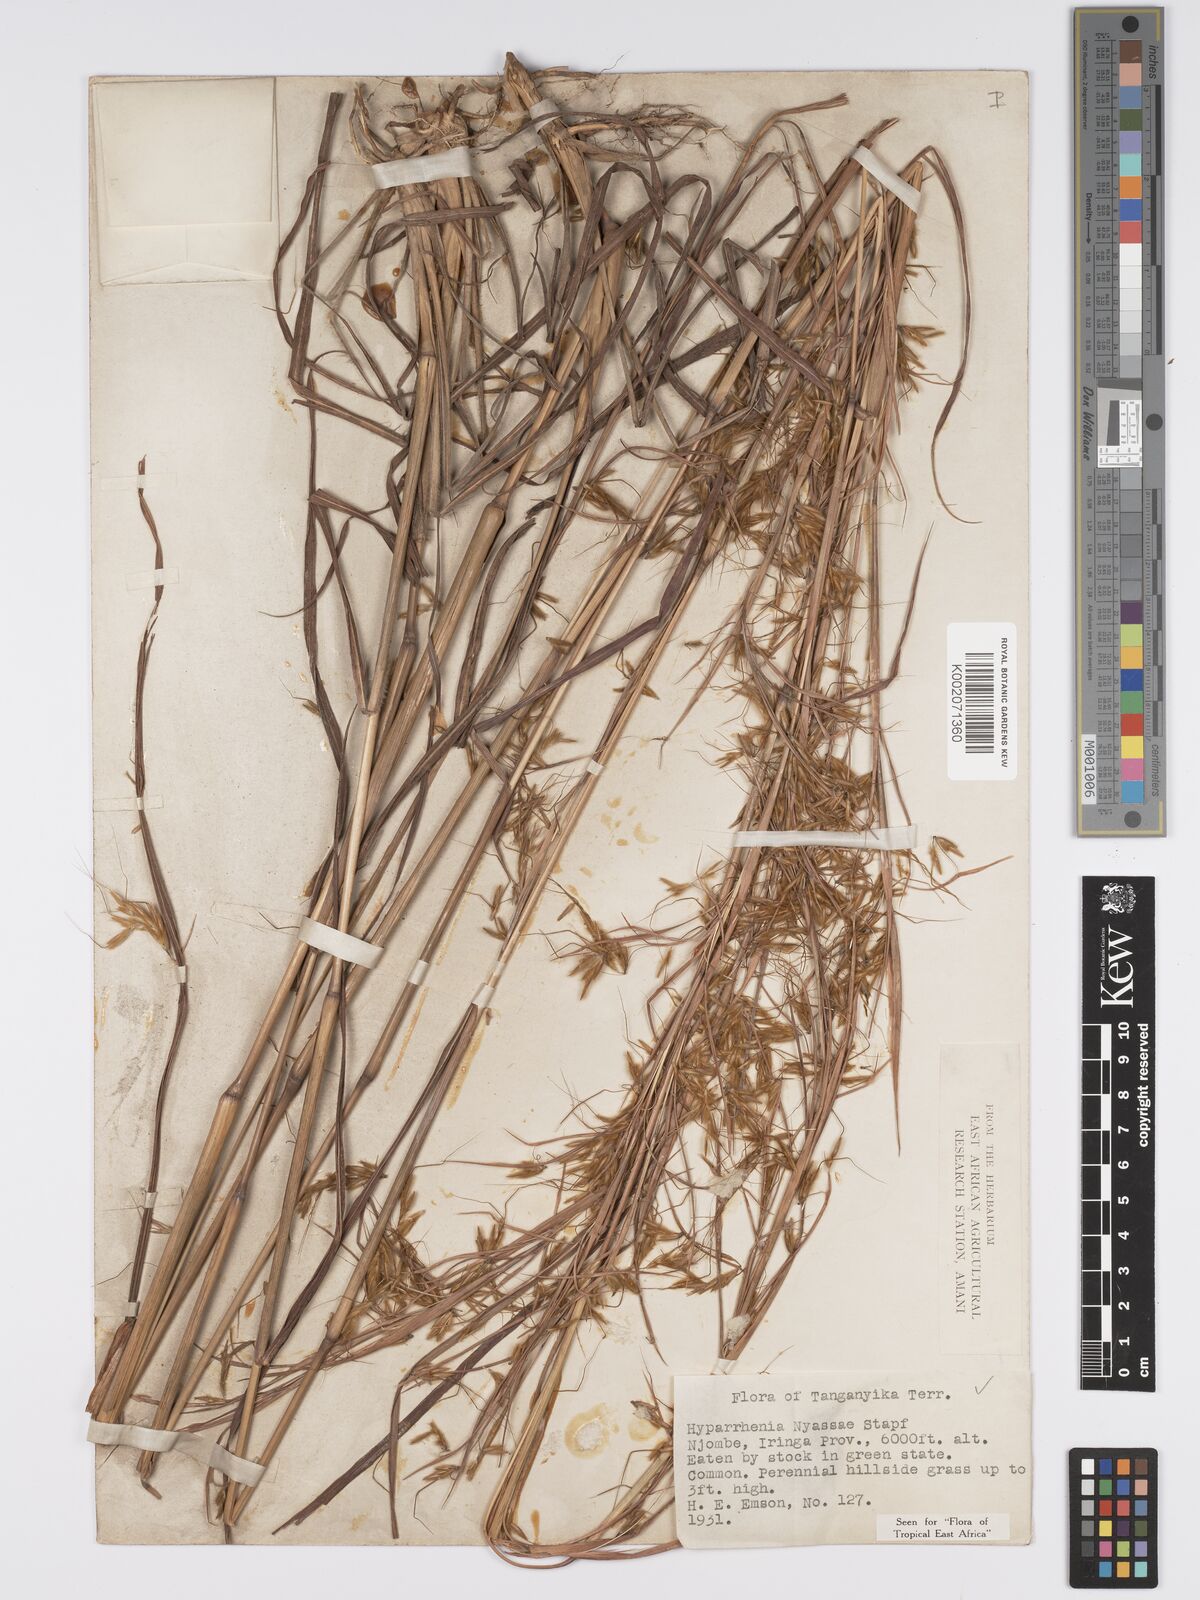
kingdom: Plantae
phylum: Tracheophyta
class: Liliopsida
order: Poales
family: Poaceae
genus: Hyparrhenia
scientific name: Hyparrhenia nyassae
